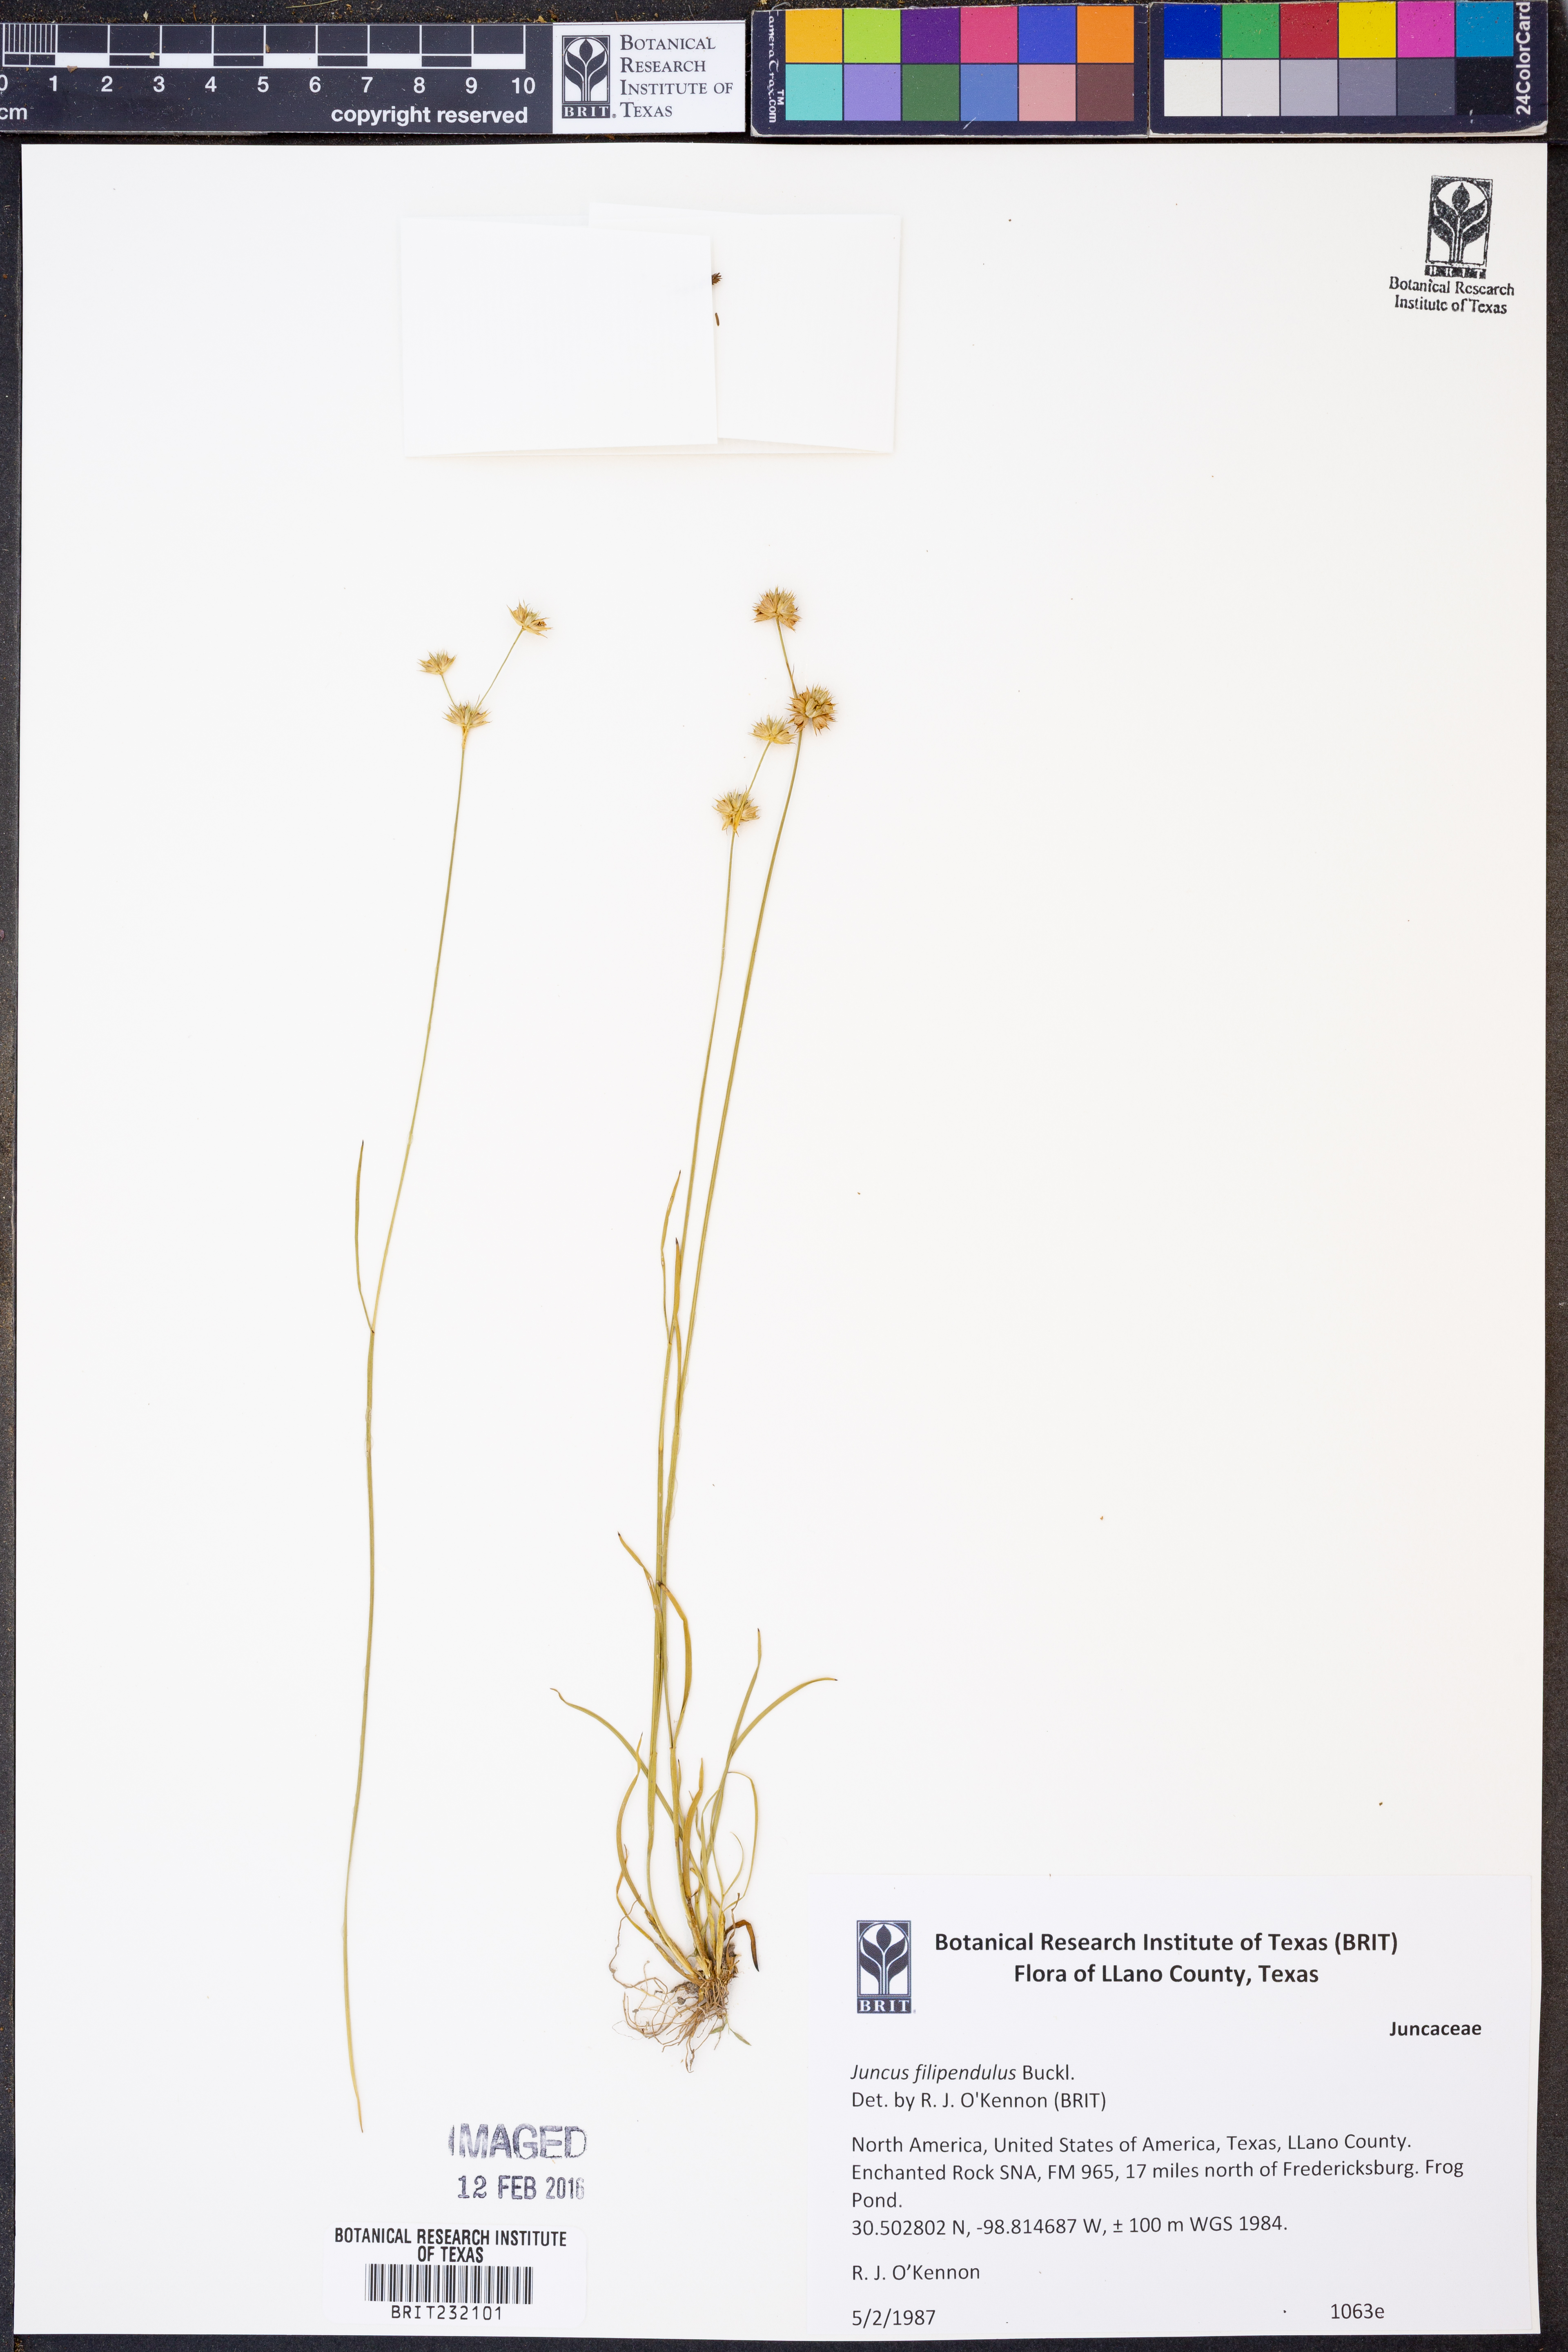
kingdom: Plantae
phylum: Tracheophyta
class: Liliopsida
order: Poales
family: Juncaceae
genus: Juncus
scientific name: Juncus filipendulus
